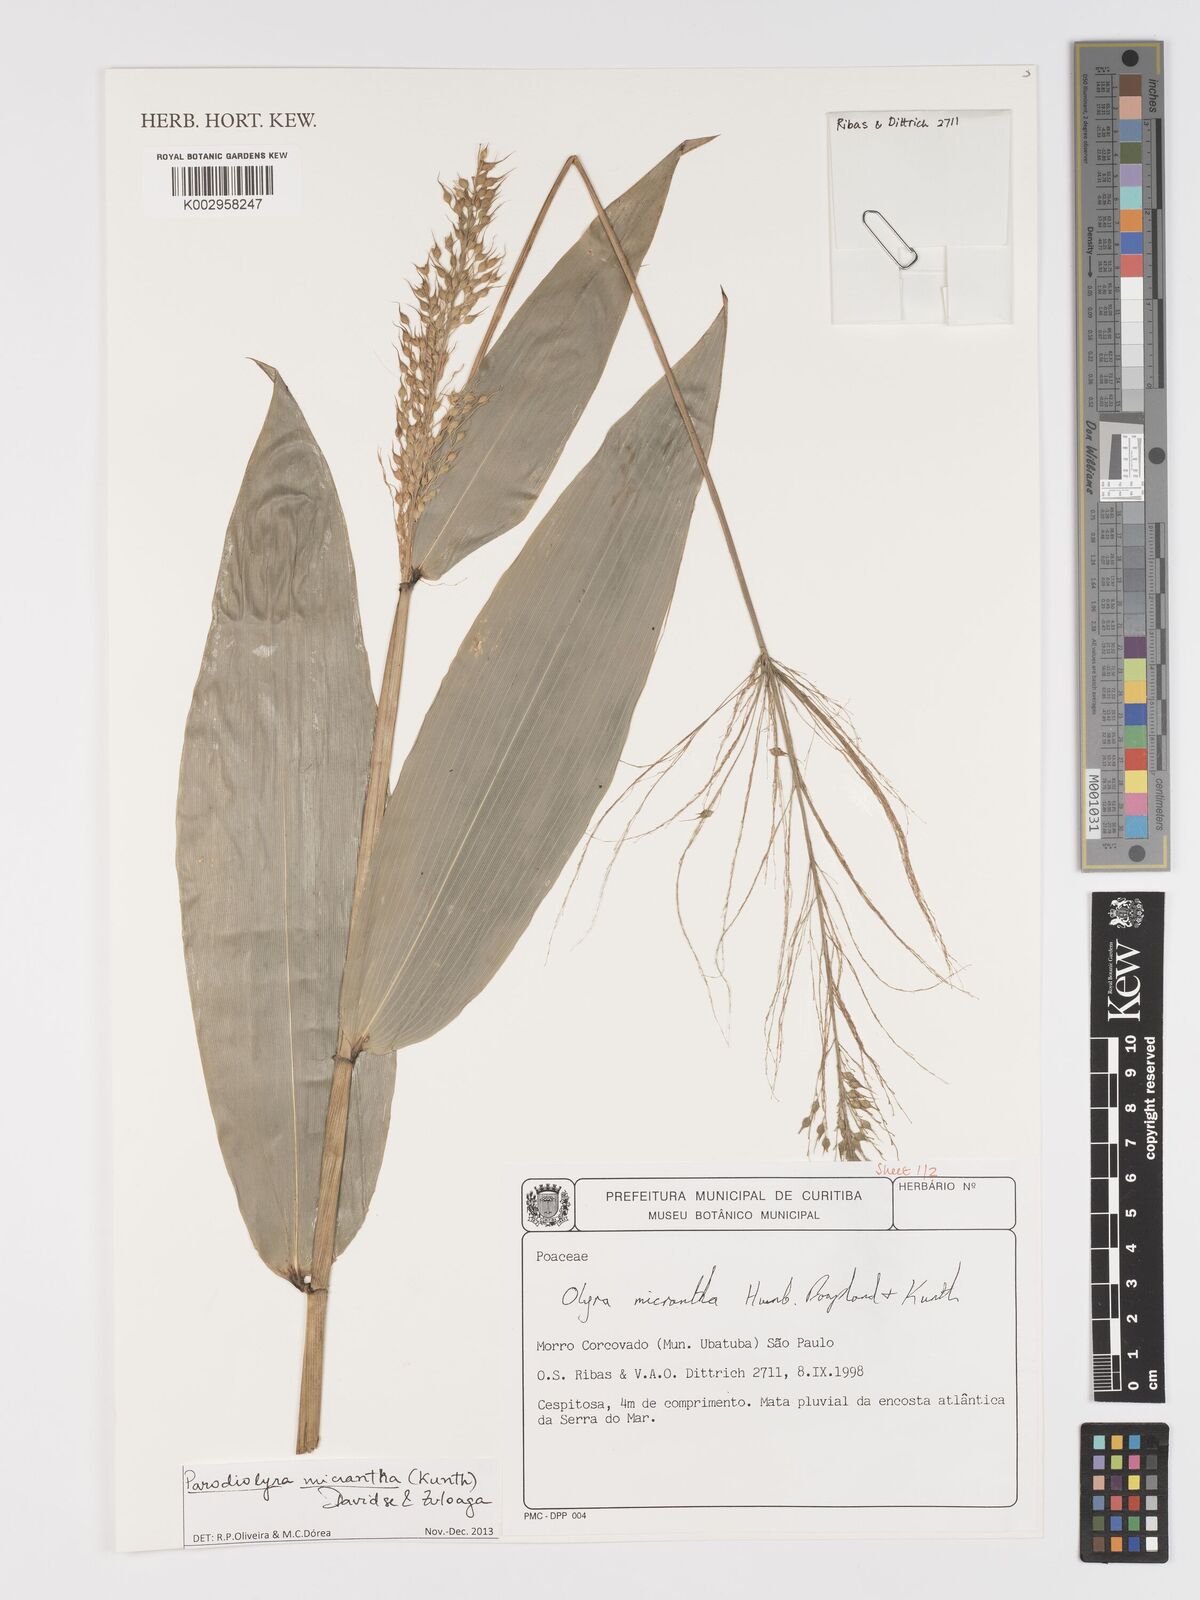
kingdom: Plantae
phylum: Tracheophyta
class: Liliopsida
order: Poales
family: Poaceae
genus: Parodiolyra
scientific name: Parodiolyra
